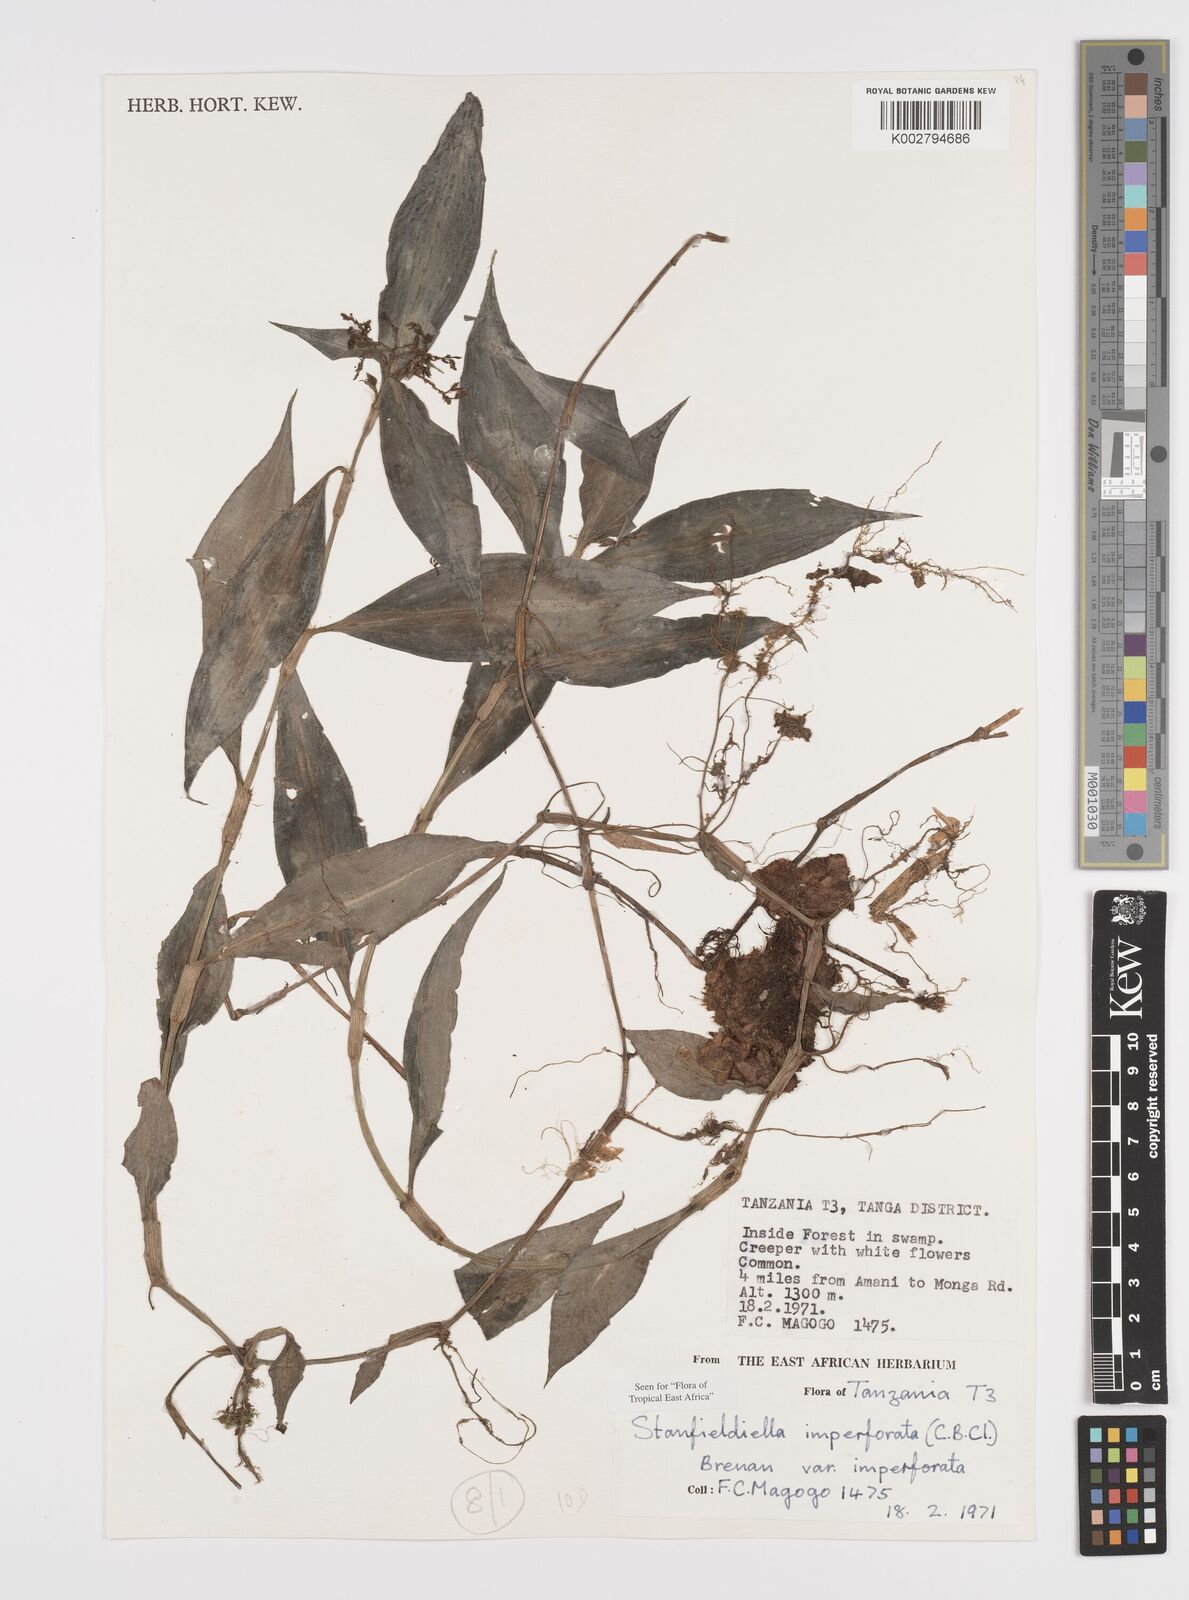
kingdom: Plantae
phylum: Tracheophyta
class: Liliopsida
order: Commelinales
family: Commelinaceae
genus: Stanfieldiella
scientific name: Stanfieldiella imperforata
